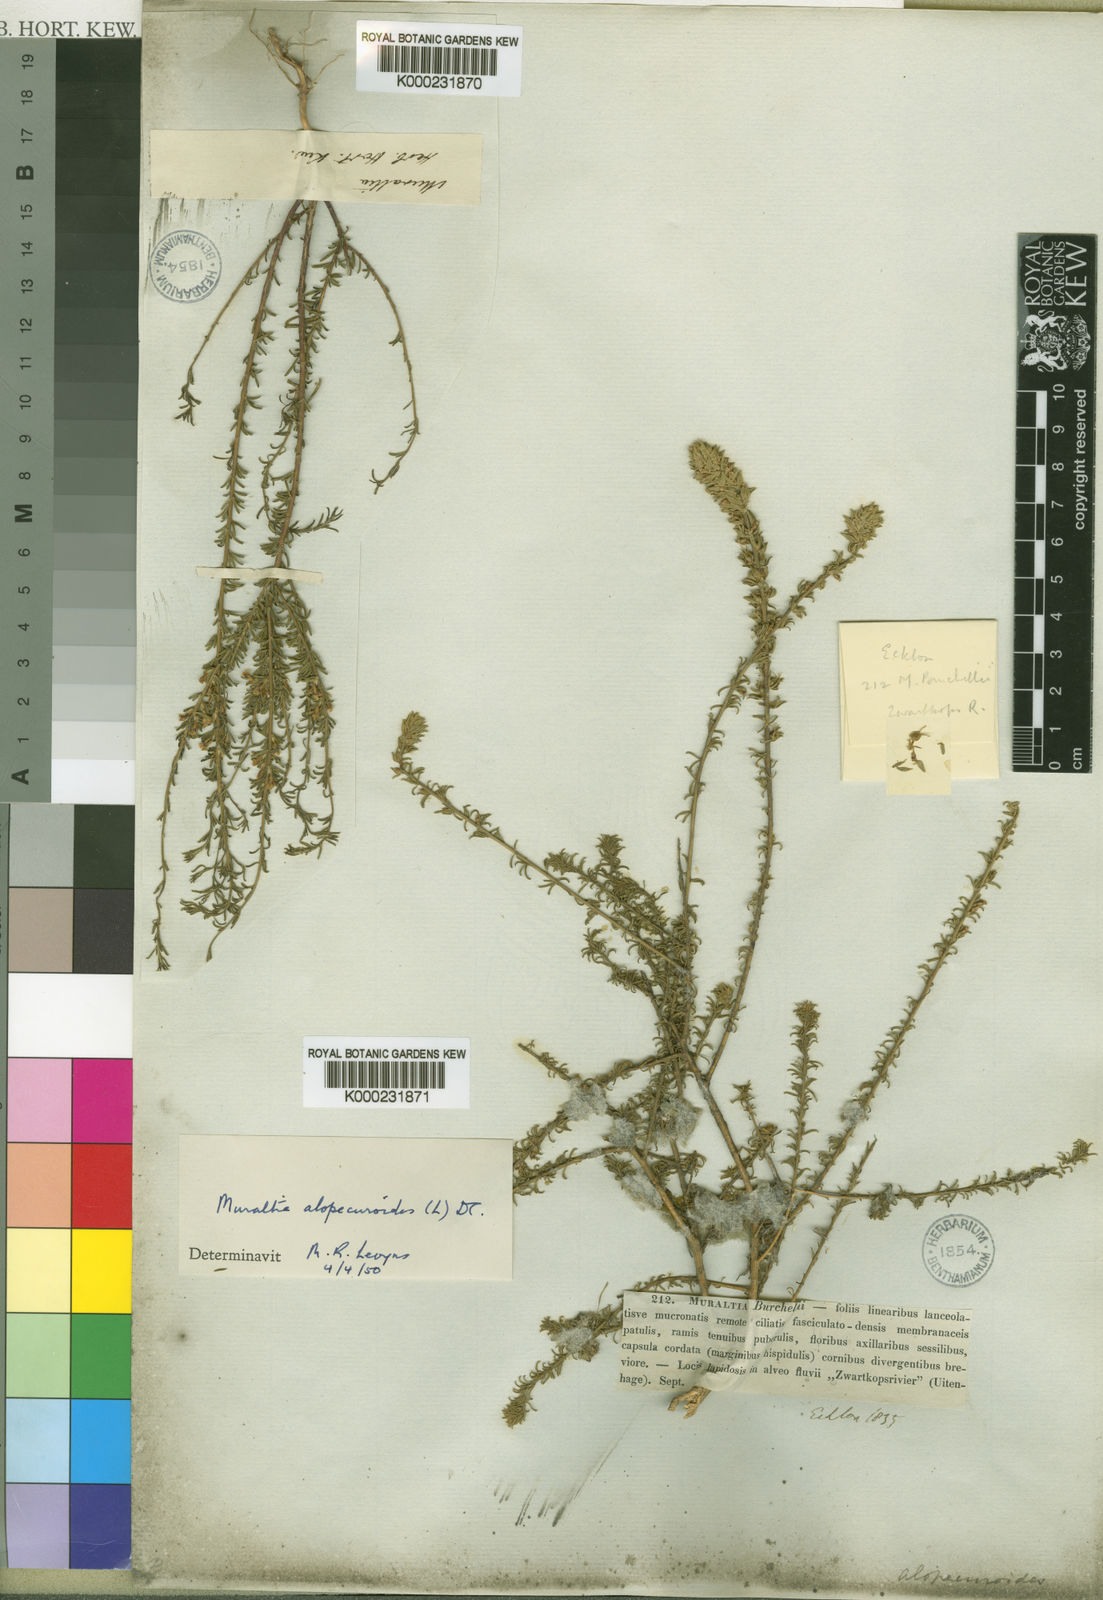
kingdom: Plantae
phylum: Tracheophyta
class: Magnoliopsida
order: Fabales
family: Polygalaceae
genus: Muraltia
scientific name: Muraltia alopecuroides
